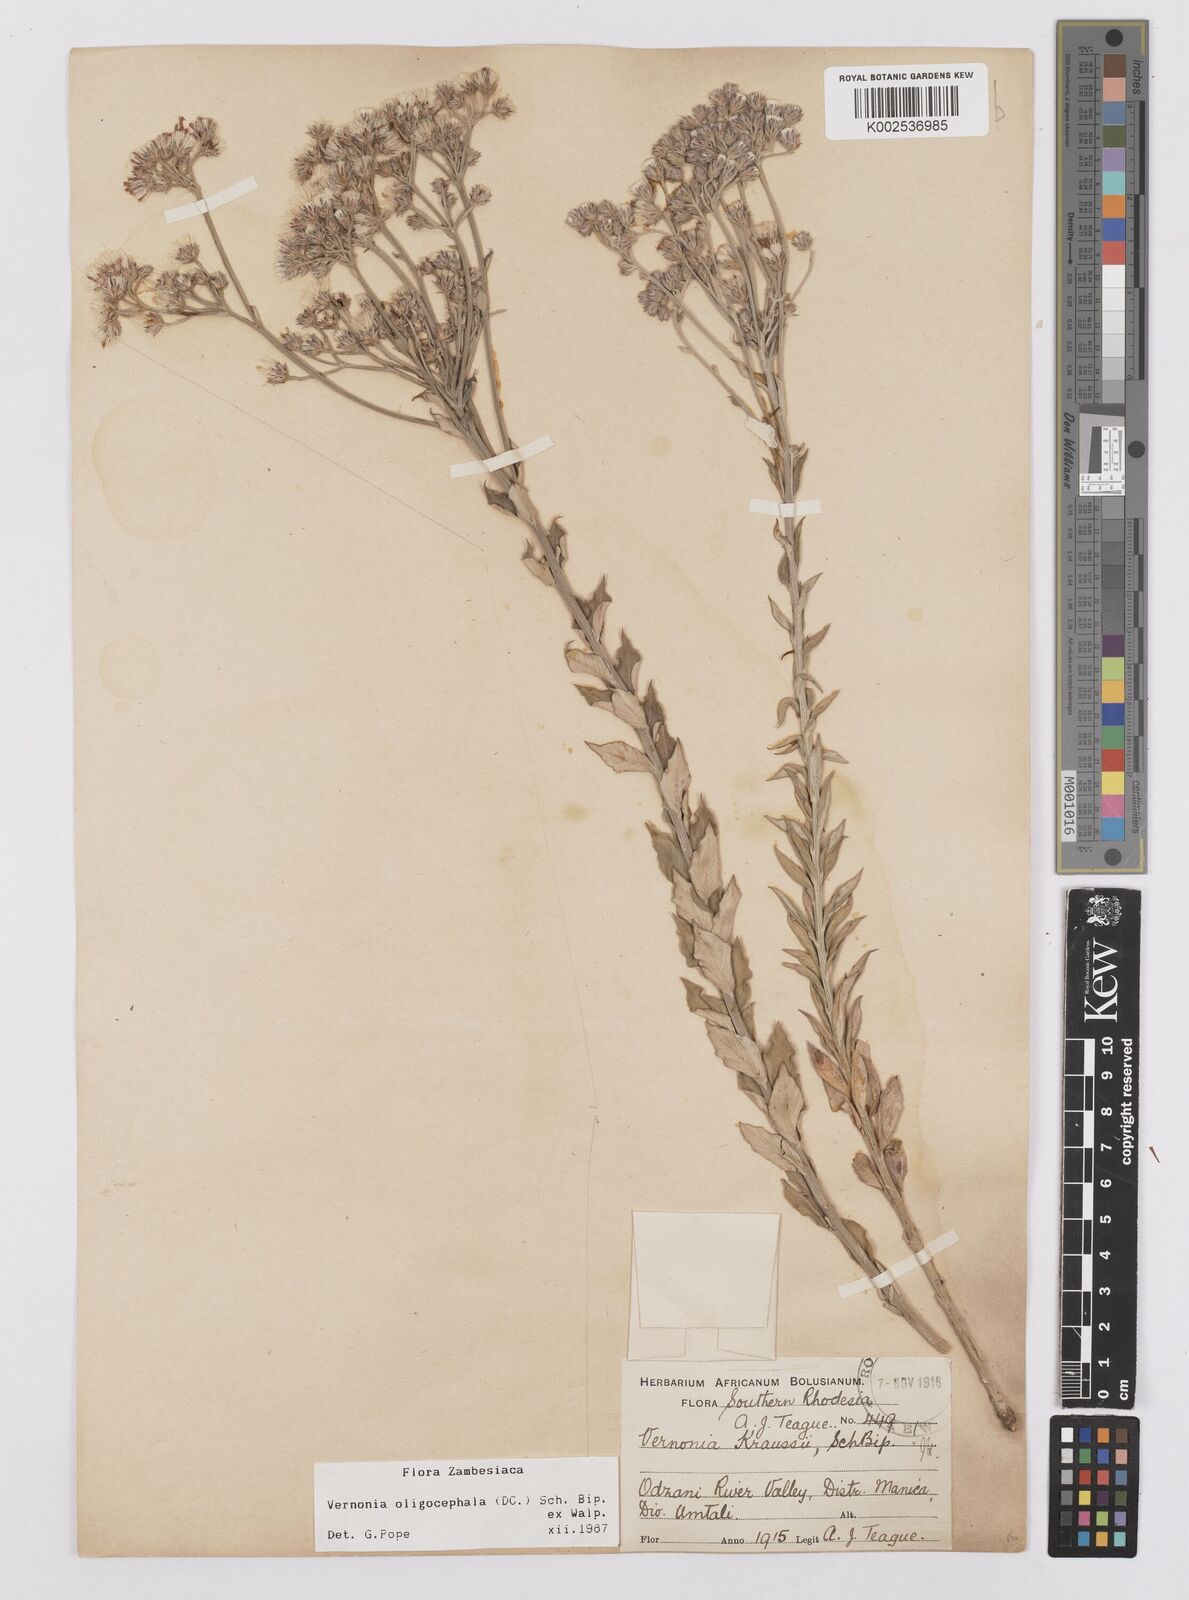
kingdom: Plantae
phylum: Tracheophyta
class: Magnoliopsida
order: Asterales
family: Asteraceae
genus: Hilliardiella
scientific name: Hilliardiella oligocephala
